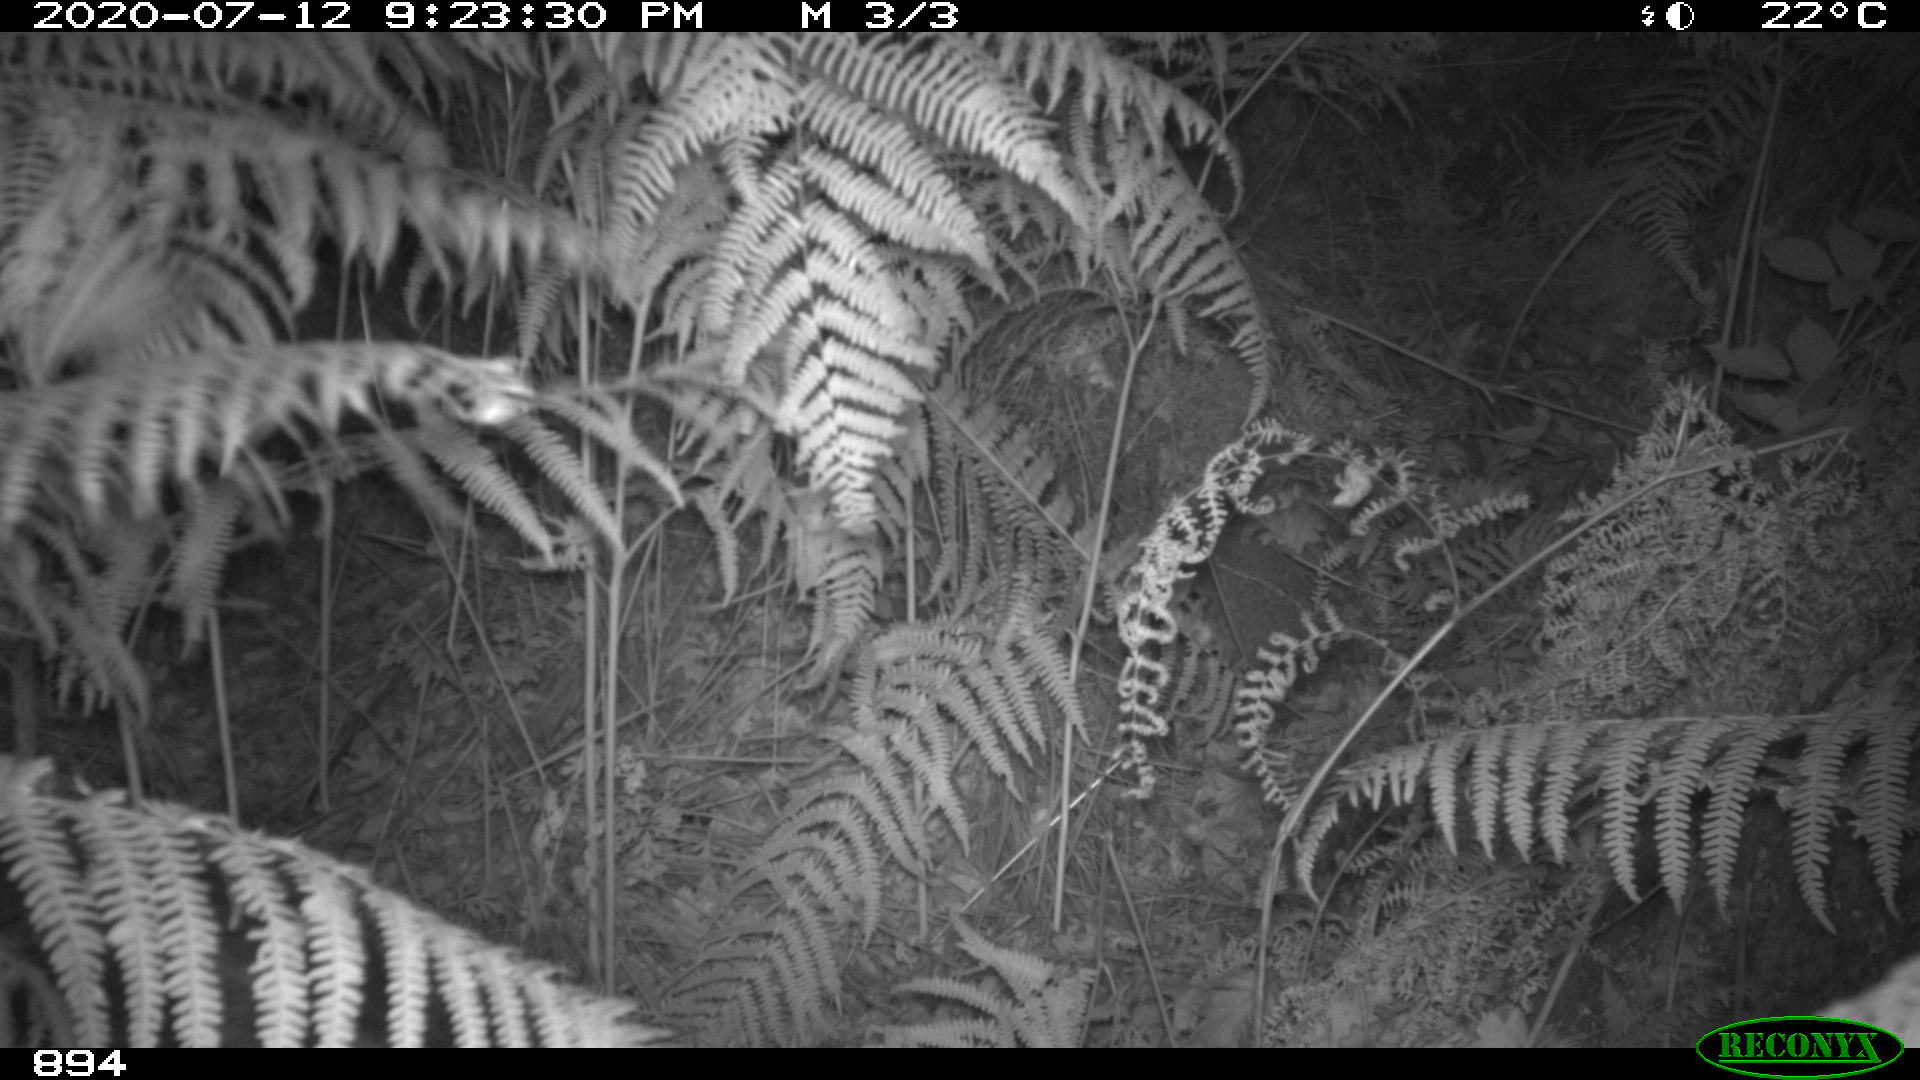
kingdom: Animalia
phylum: Chordata
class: Mammalia
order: Artiodactyla
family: Suidae
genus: Sus
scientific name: Sus scrofa
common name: Wild boar
